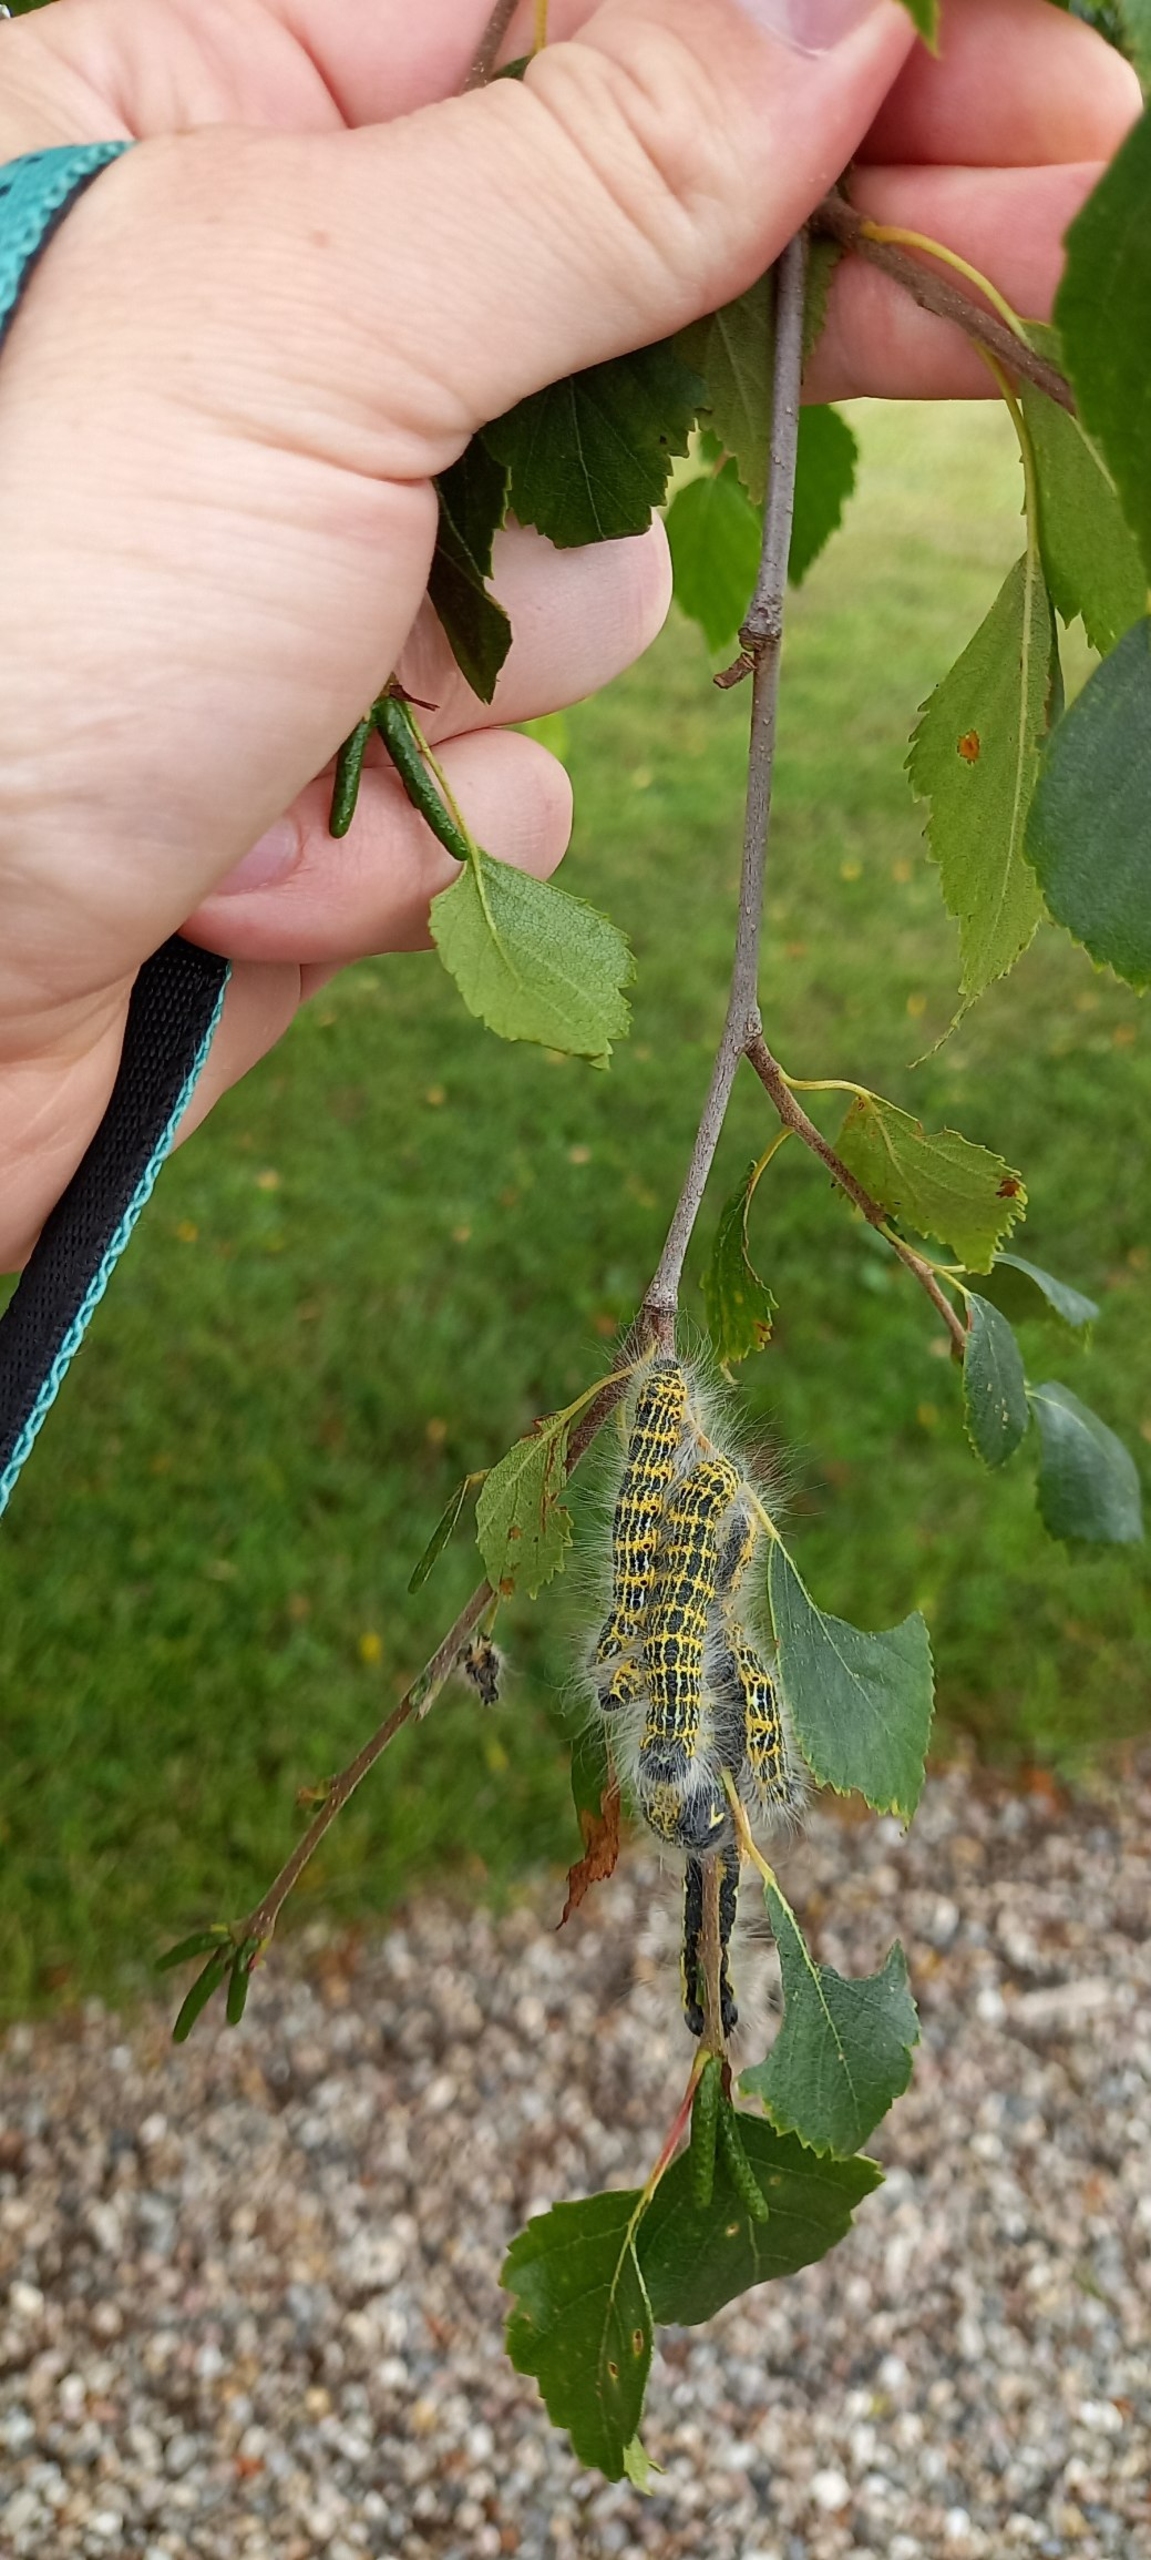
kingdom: Animalia
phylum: Arthropoda
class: Insecta
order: Lepidoptera
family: Notodontidae
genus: Phalera
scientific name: Phalera bucephala
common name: Måneplet
